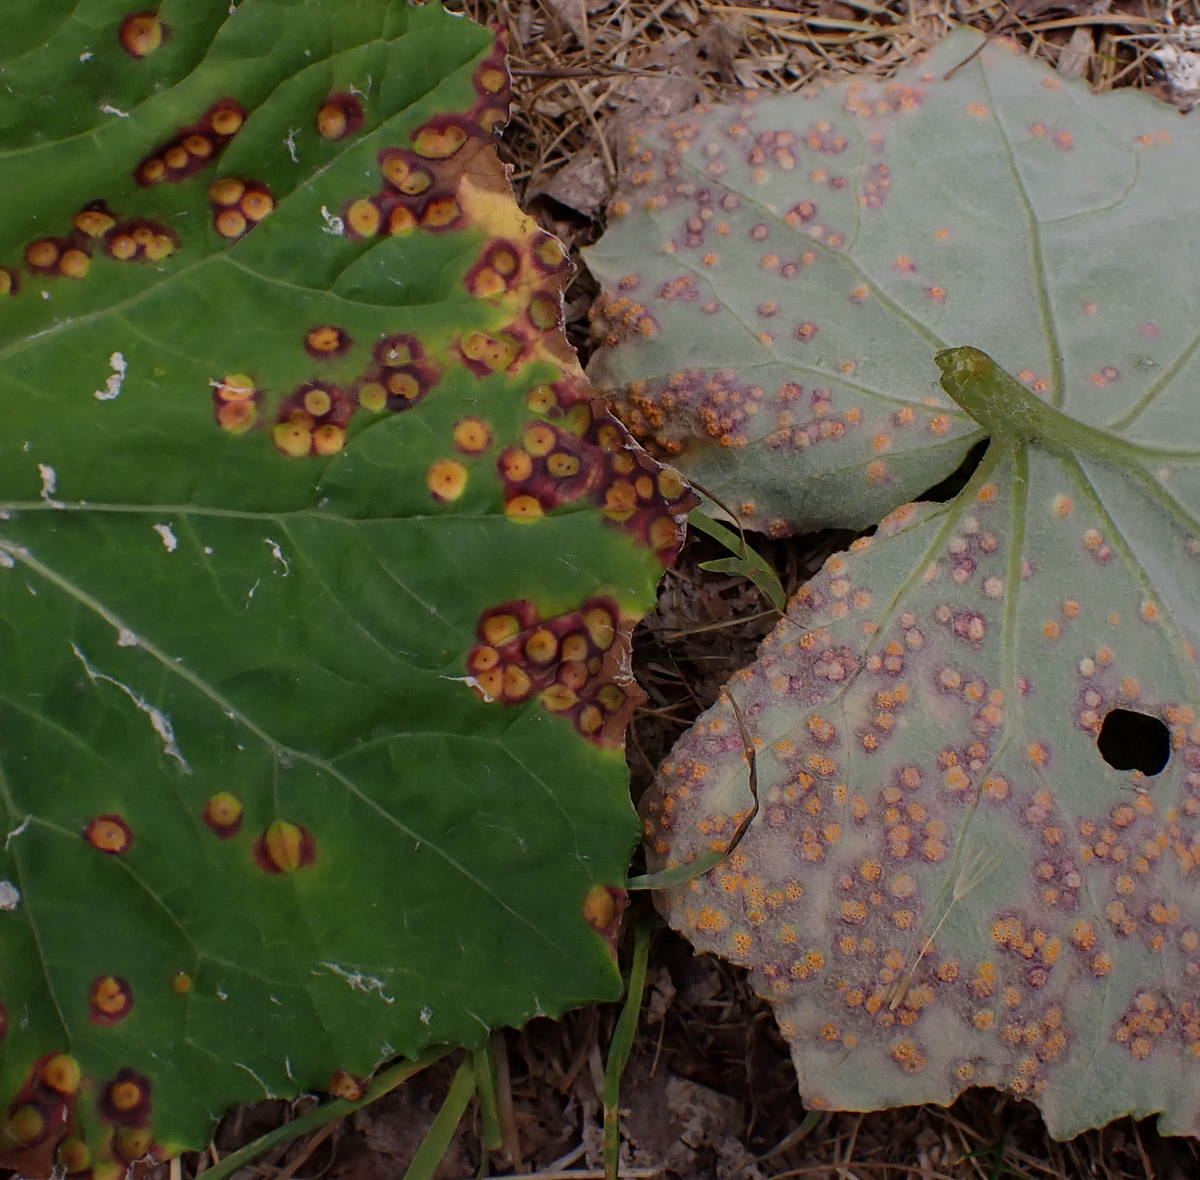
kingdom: Fungi
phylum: Basidiomycota
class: Pucciniomycetes
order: Pucciniales
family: Pucciniaceae
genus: Puccinia
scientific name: Puccinia poarum
